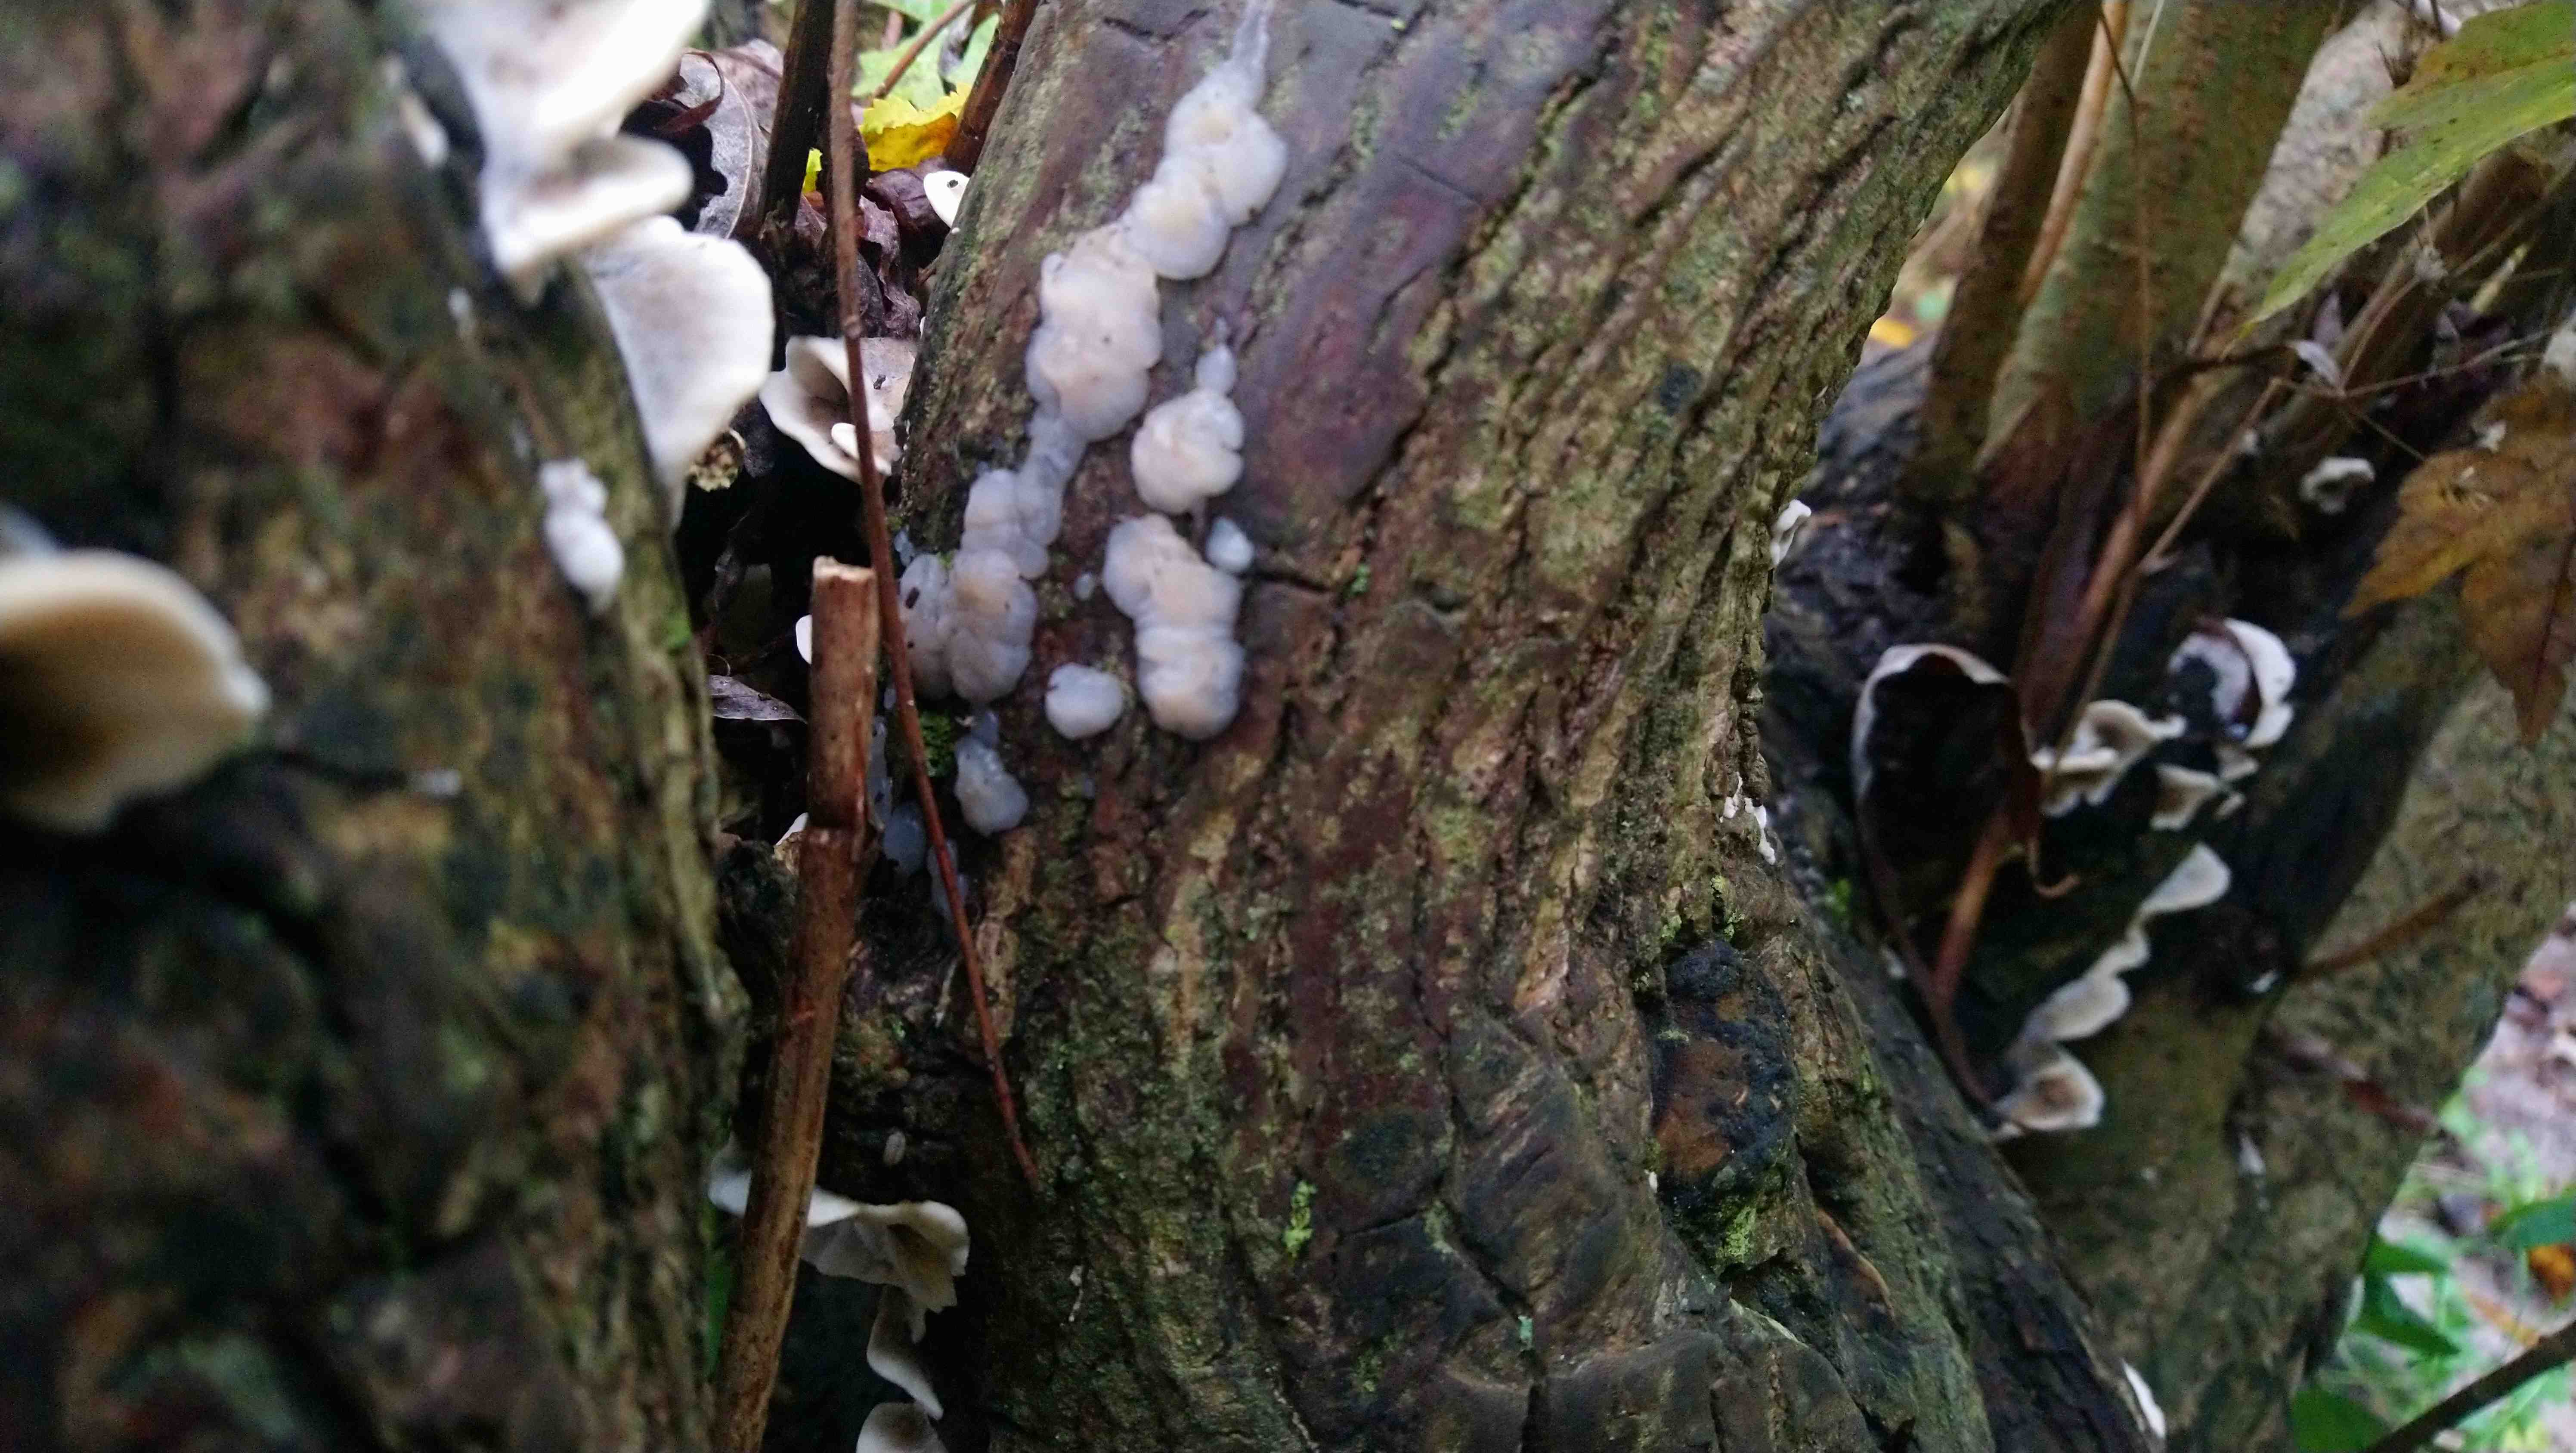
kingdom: Fungi
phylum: Basidiomycota
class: Agaricomycetes
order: Auriculariales
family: Auriculariaceae
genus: Exidia
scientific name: Exidia thuretiana
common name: hvidlig bævretop
